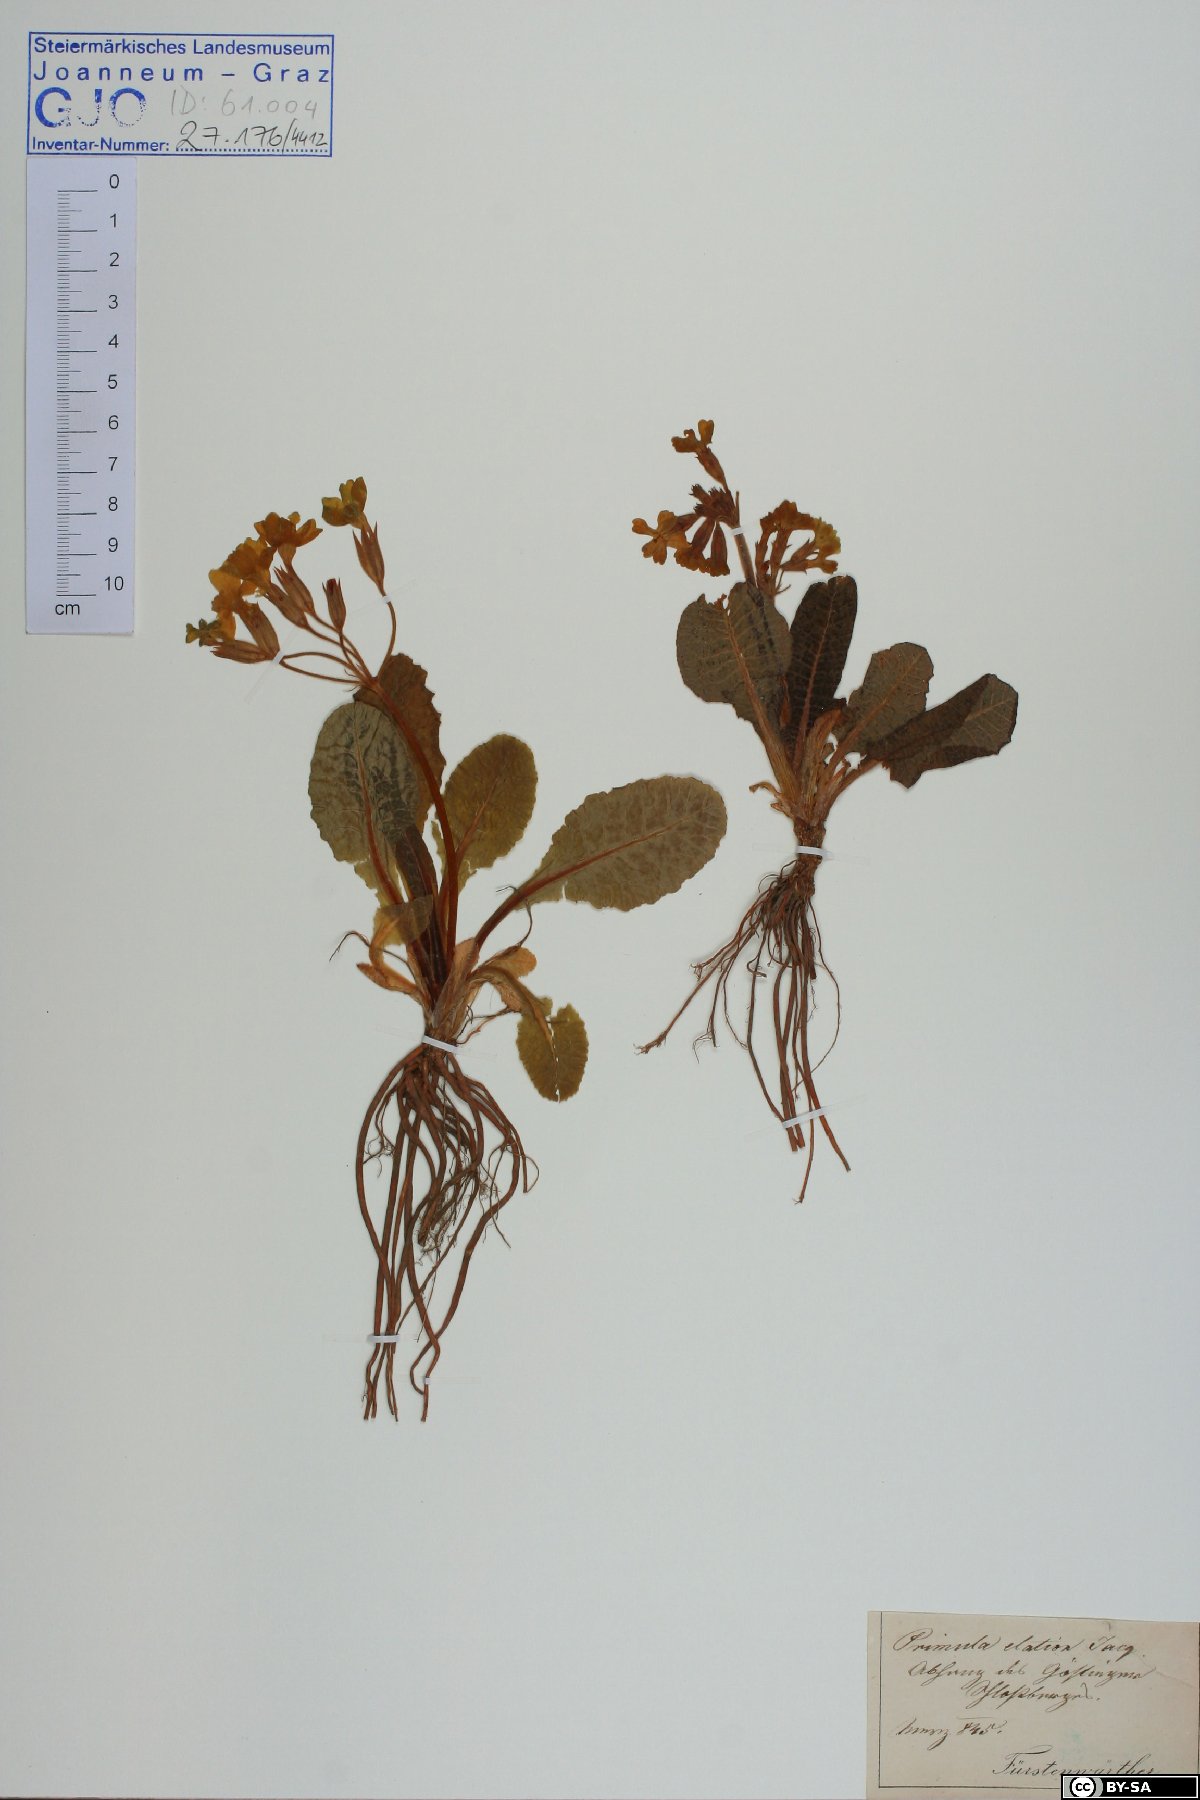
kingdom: Plantae
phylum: Tracheophyta
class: Magnoliopsida
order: Ericales
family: Primulaceae
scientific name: Primulaceae
